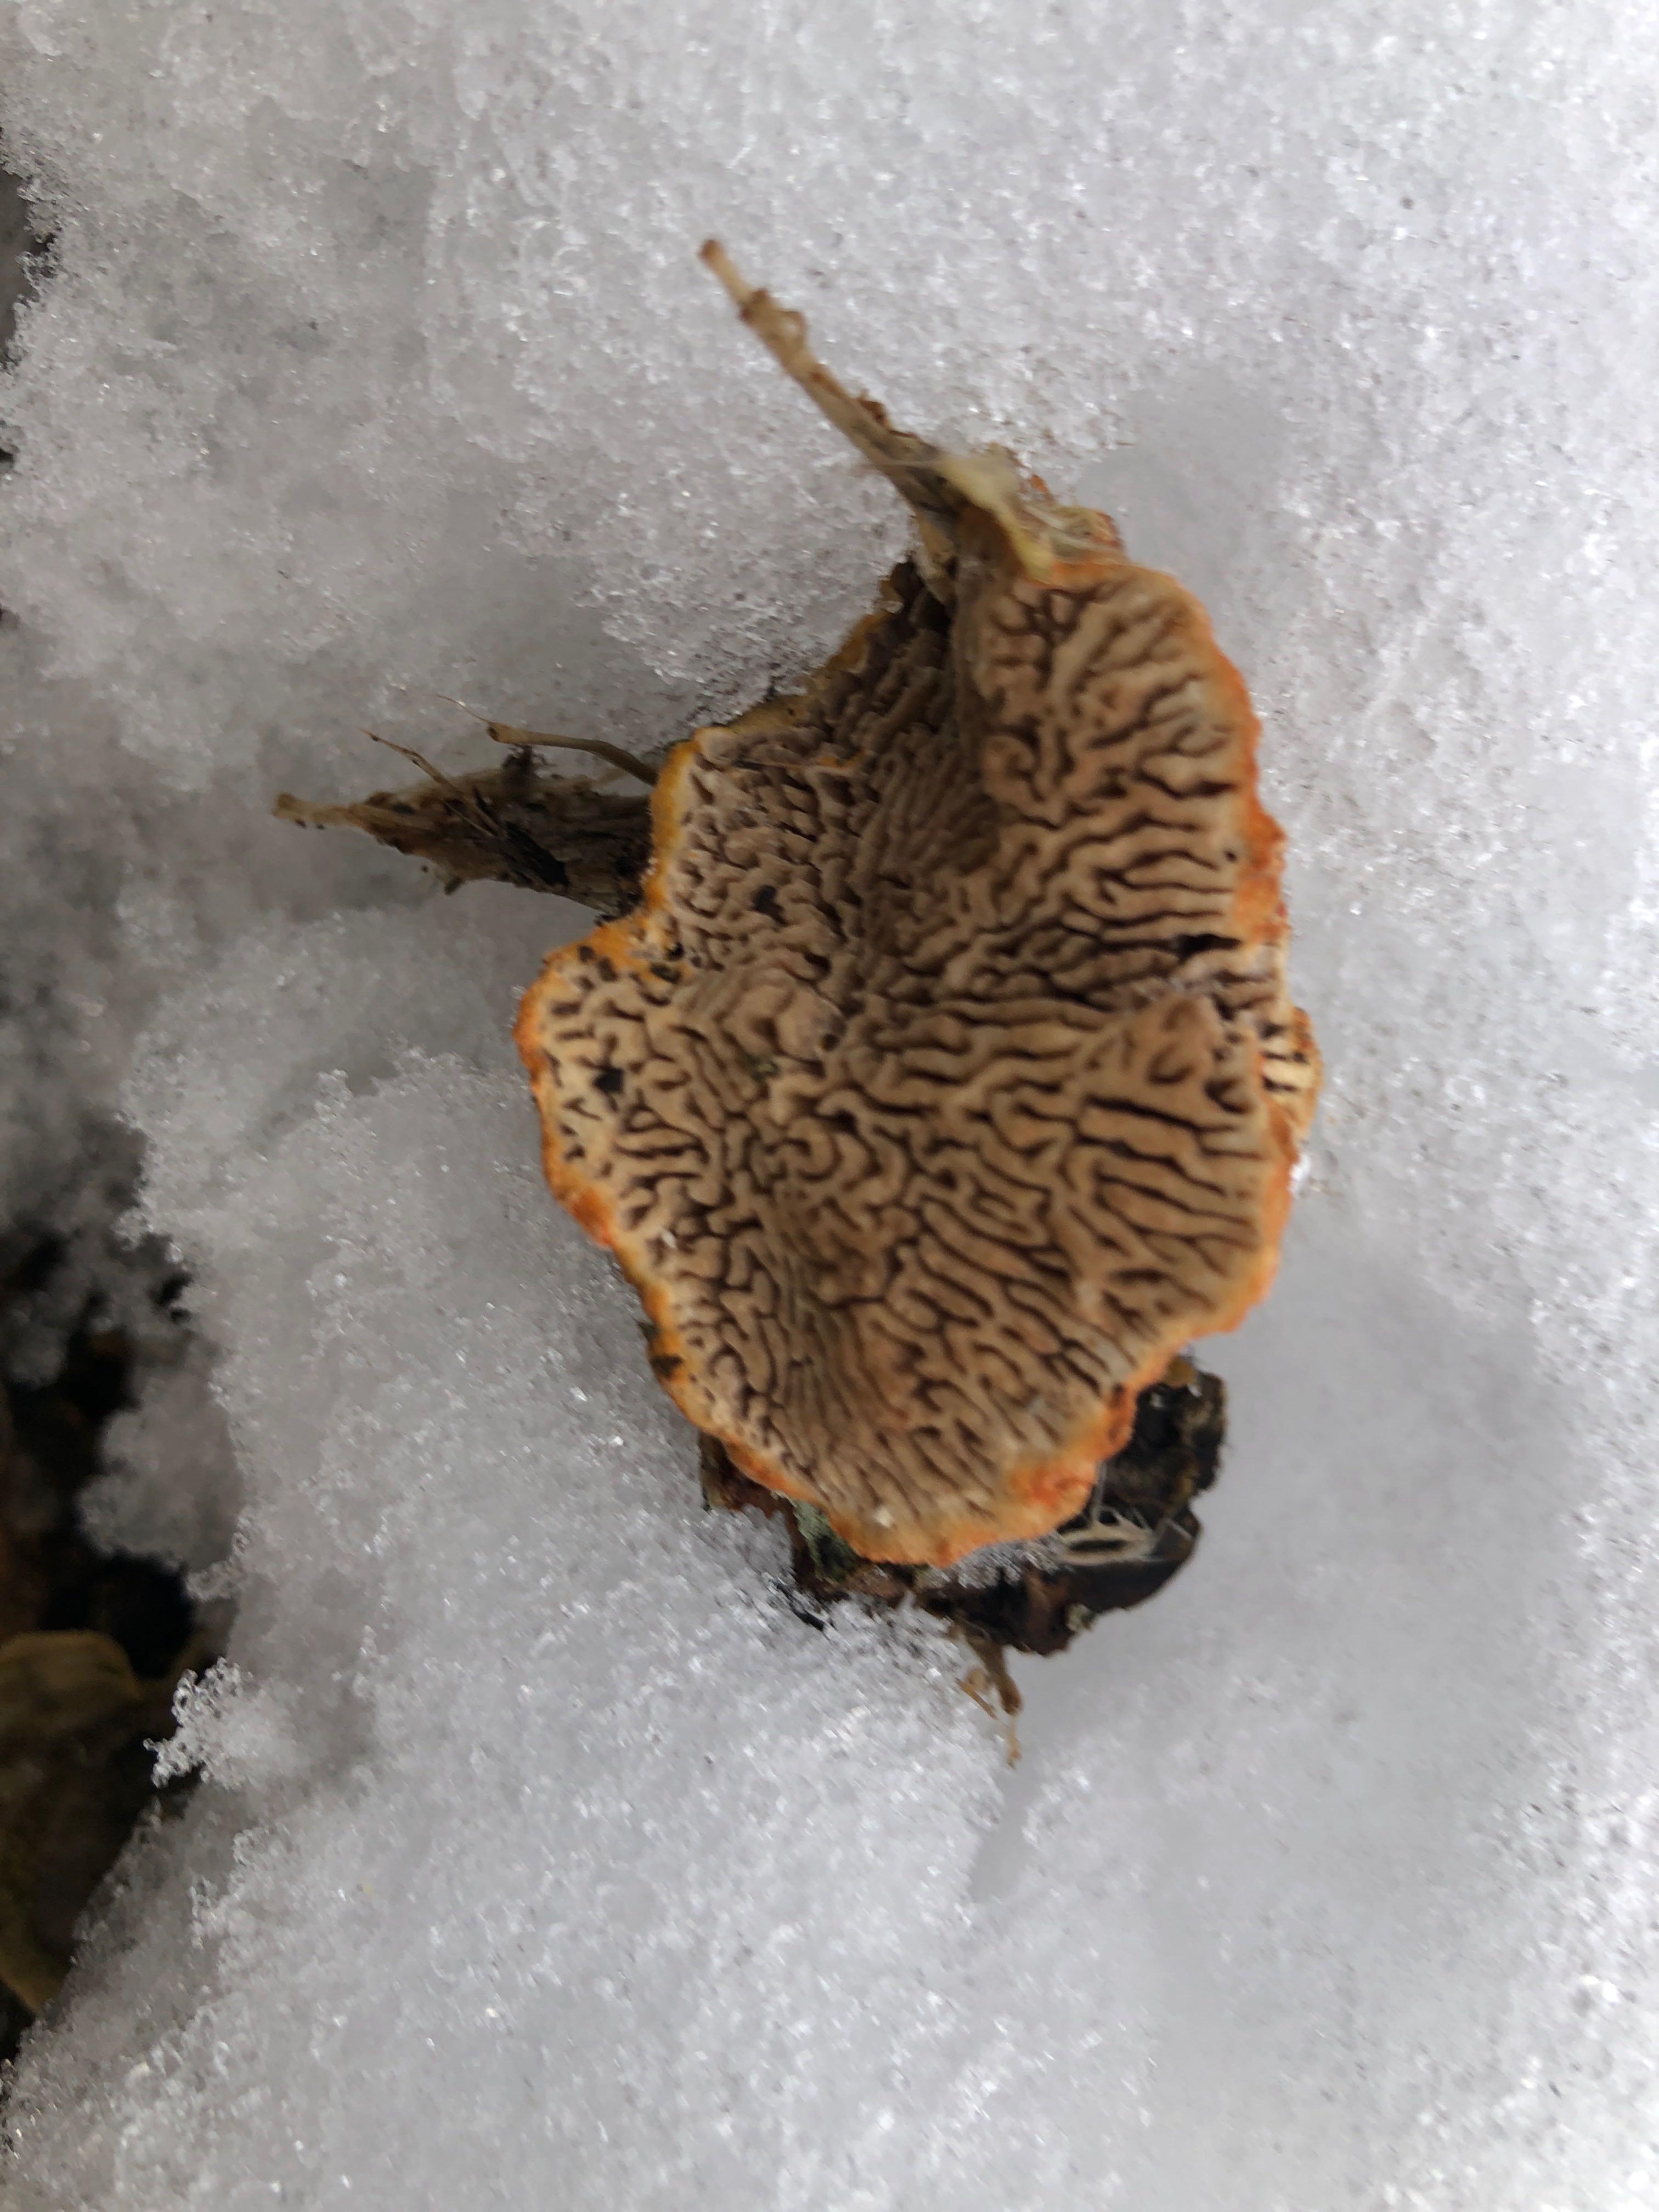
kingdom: Fungi
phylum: Basidiomycota
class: Agaricomycetes
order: Polyporales
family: Polyporaceae
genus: Lenzites
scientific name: Lenzites betulinus
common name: birke-læderporesvamp
